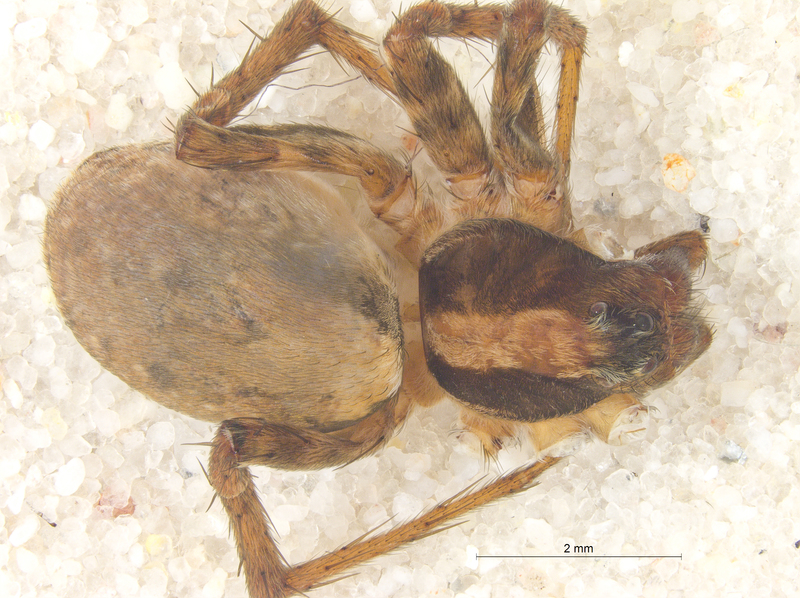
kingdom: Animalia
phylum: Arthropoda
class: Arachnida
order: Araneae
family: Lycosidae
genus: Xerolycosa
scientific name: Xerolycosa nemoralis
